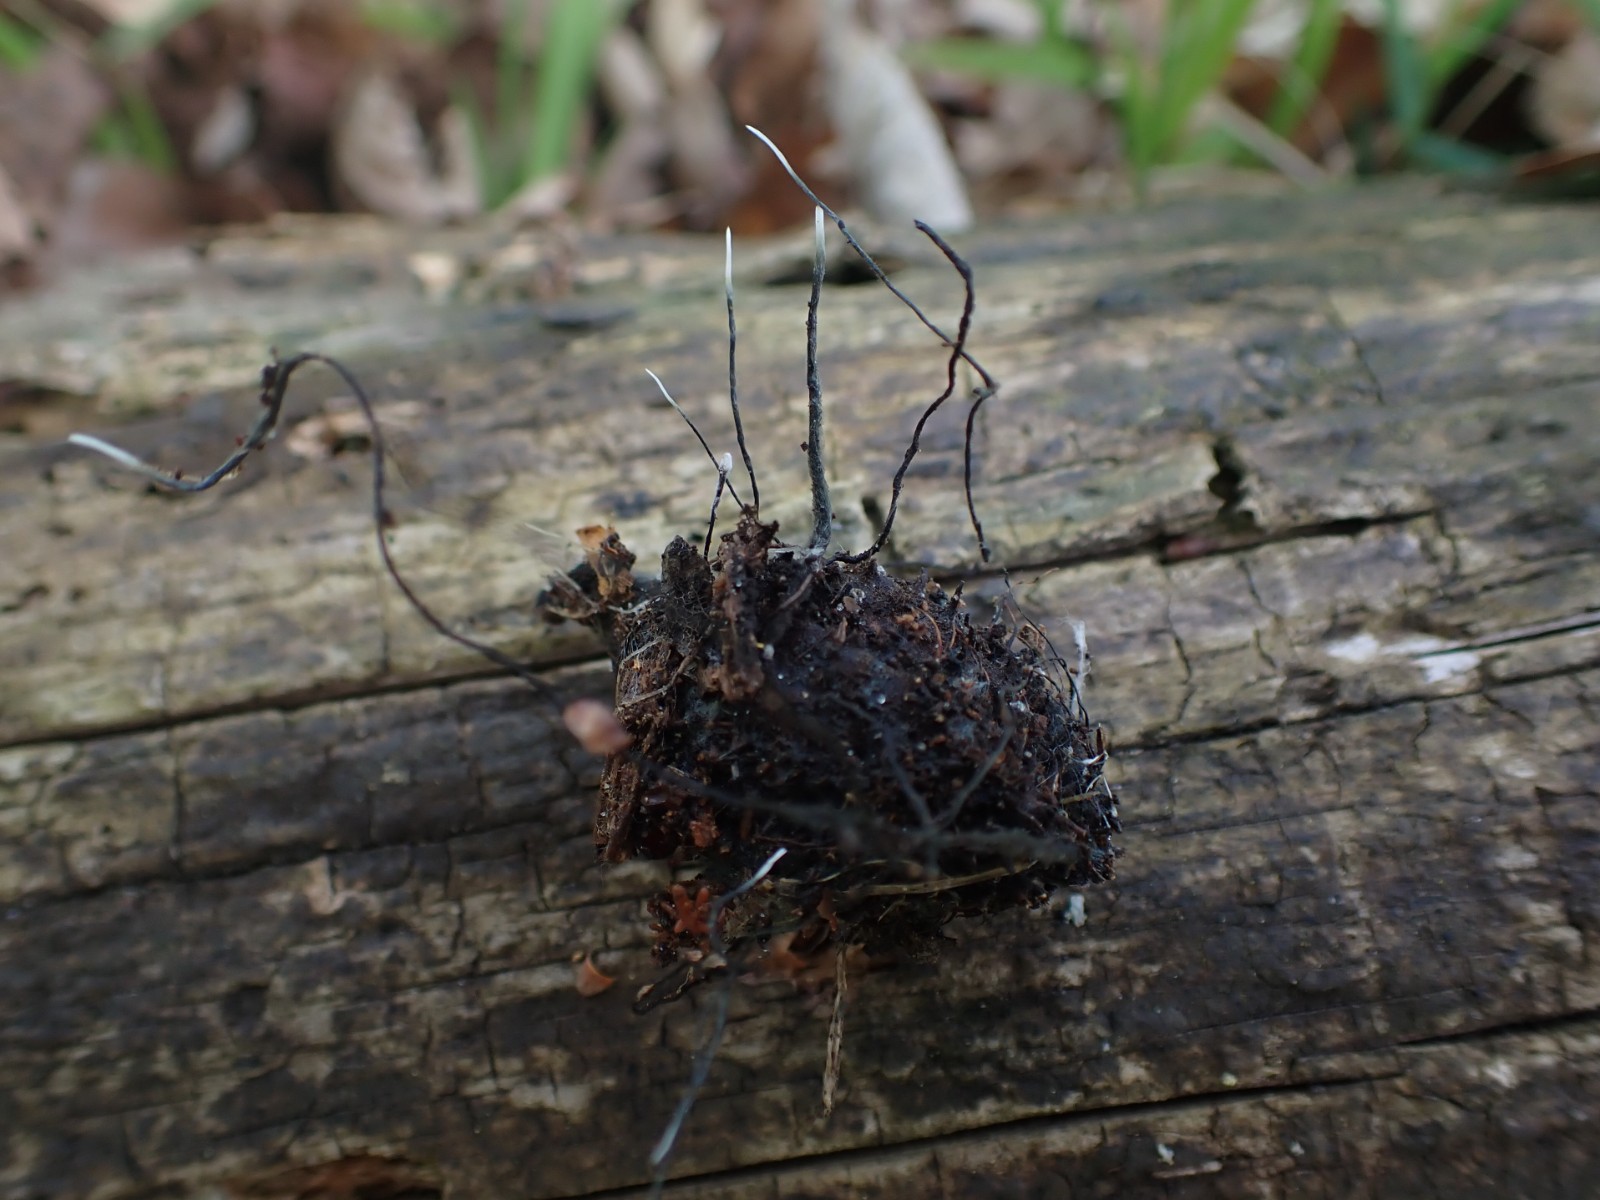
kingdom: Fungi
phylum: Ascomycota
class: Sordariomycetes
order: Xylariales
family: Xylariaceae
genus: Xylaria
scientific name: Xylaria carpophila
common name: bogskål-stødsvamp
